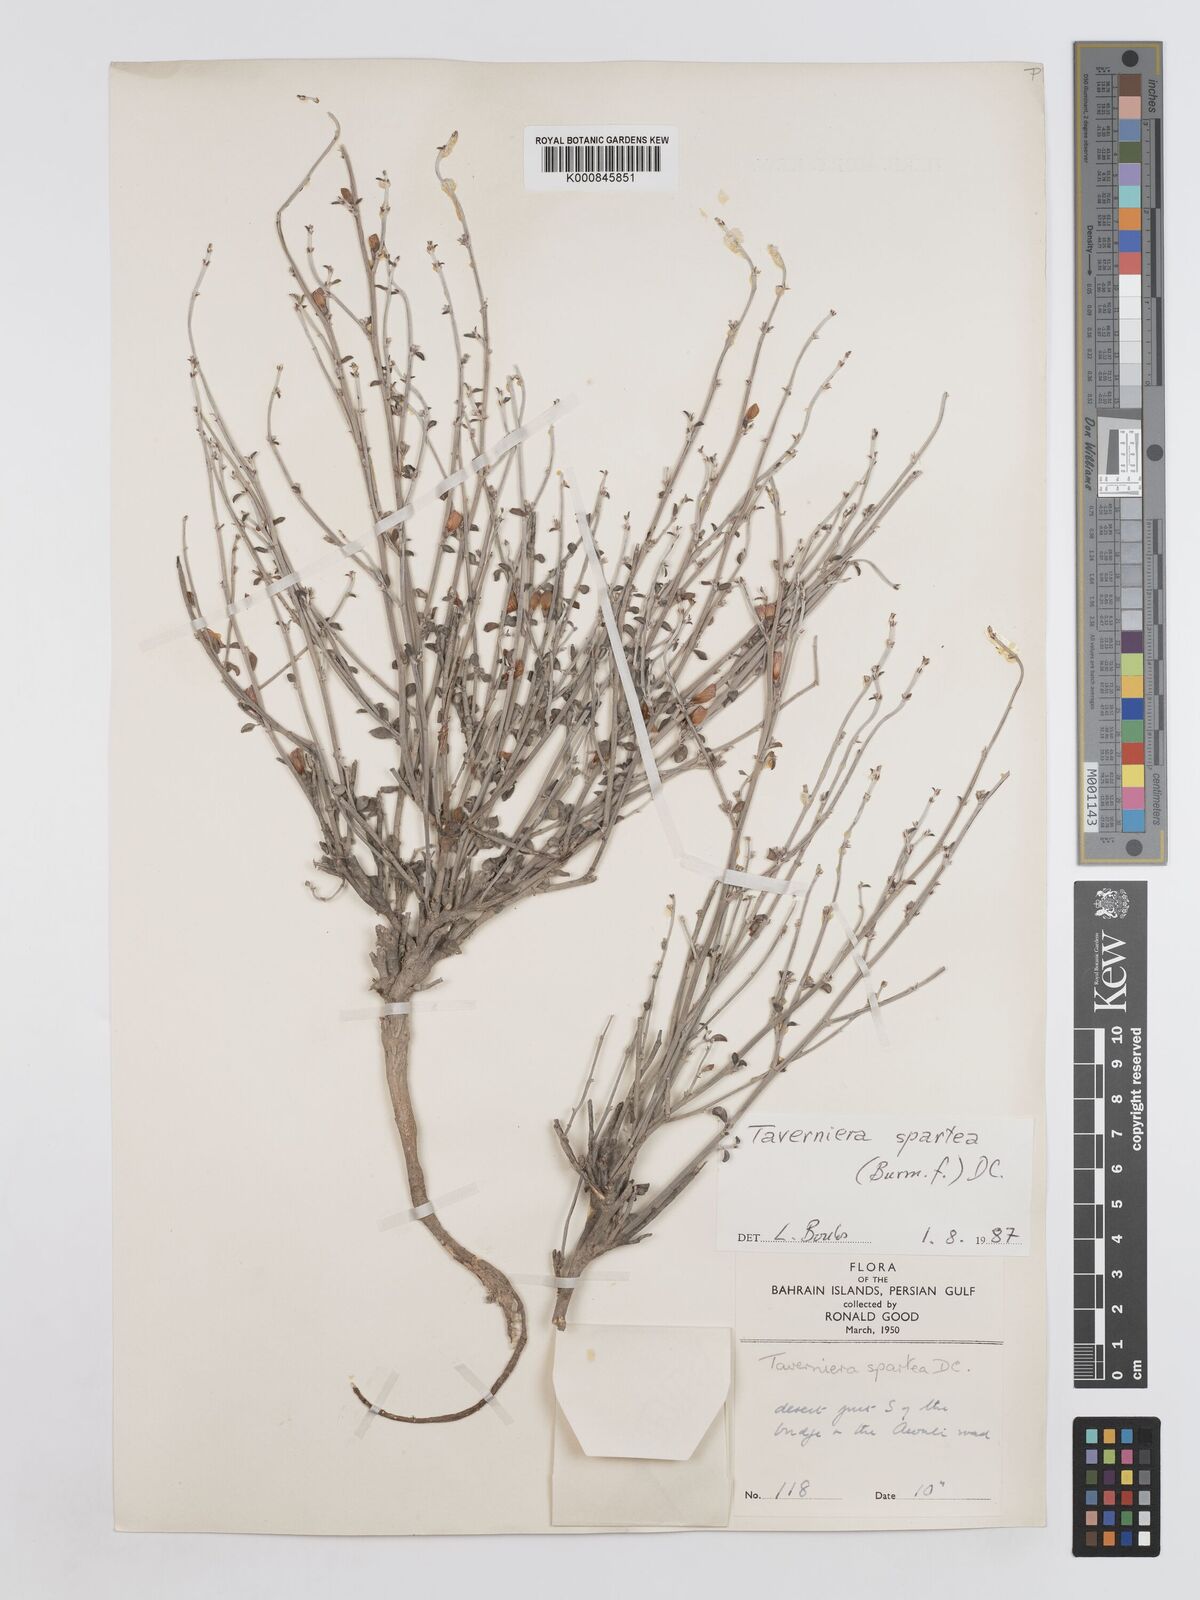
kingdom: Plantae
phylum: Tracheophyta
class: Magnoliopsida
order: Fabales
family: Fabaceae
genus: Taverniera
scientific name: Taverniera spartea
